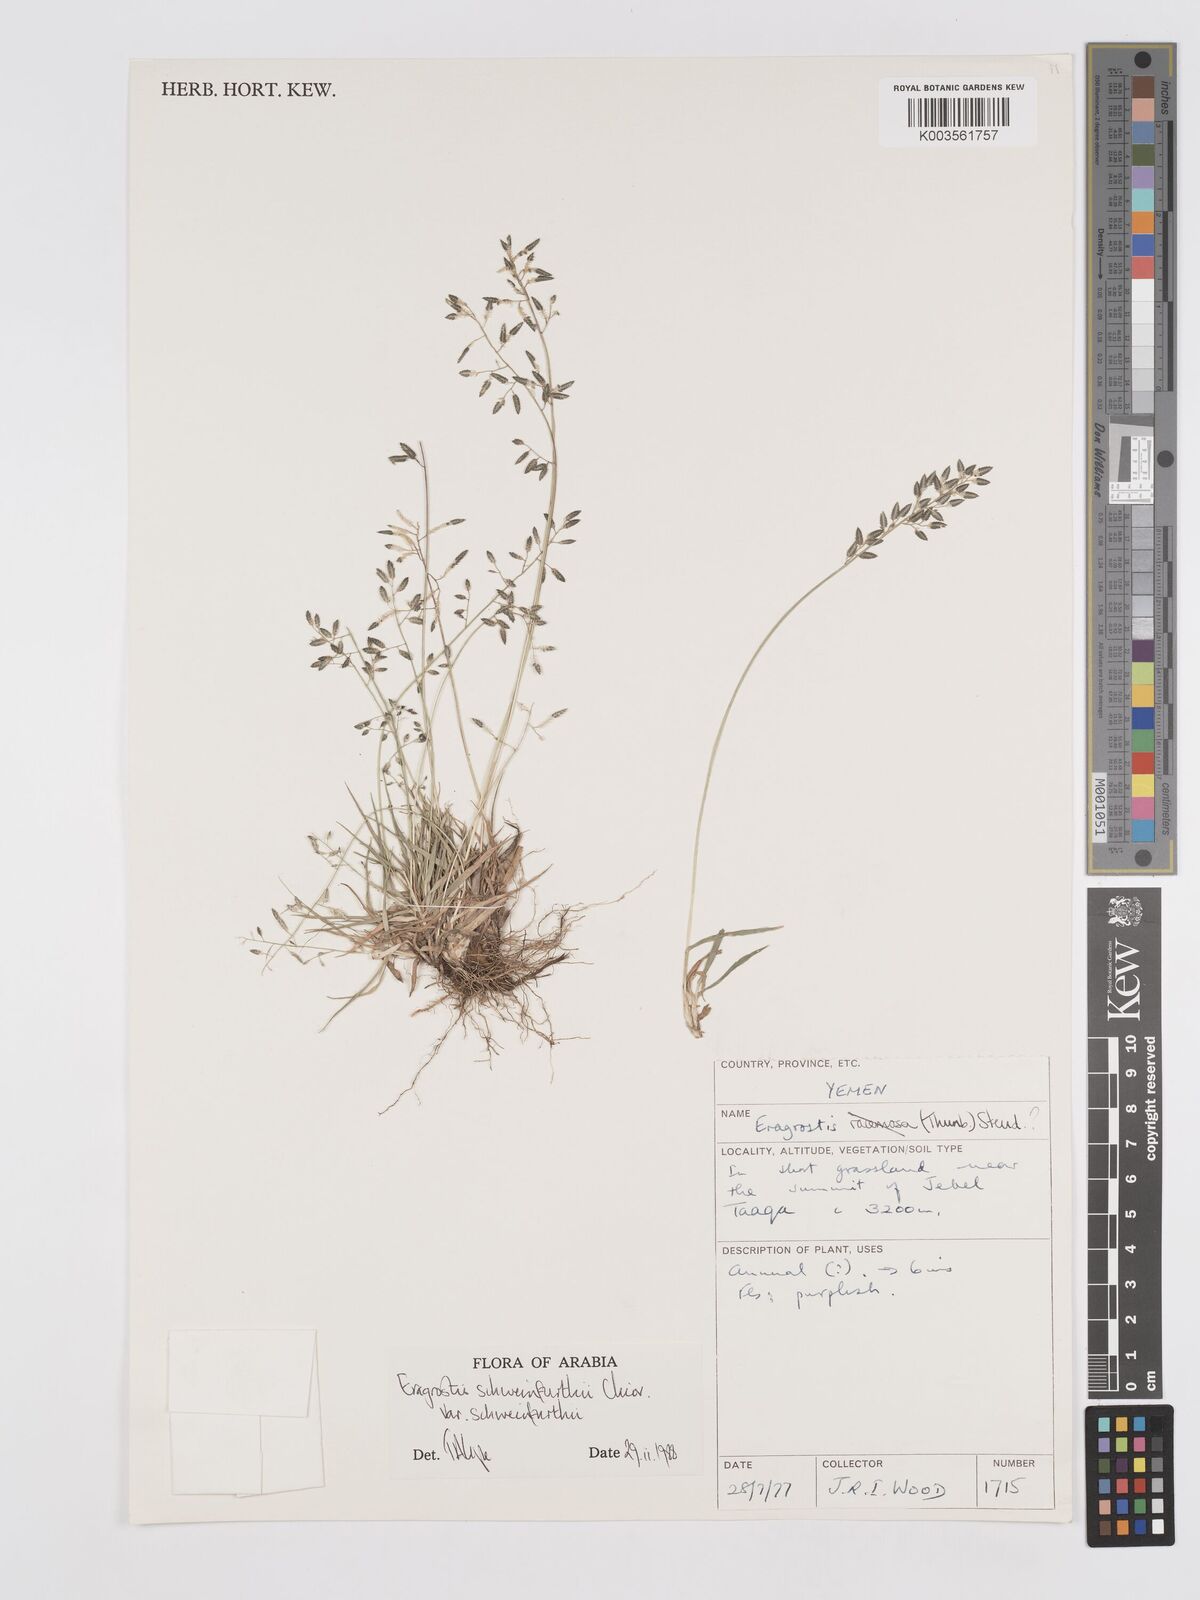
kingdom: Plantae
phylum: Tracheophyta
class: Liliopsida
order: Poales
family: Poaceae
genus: Eragrostis
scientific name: Eragrostis schweinfurthii
